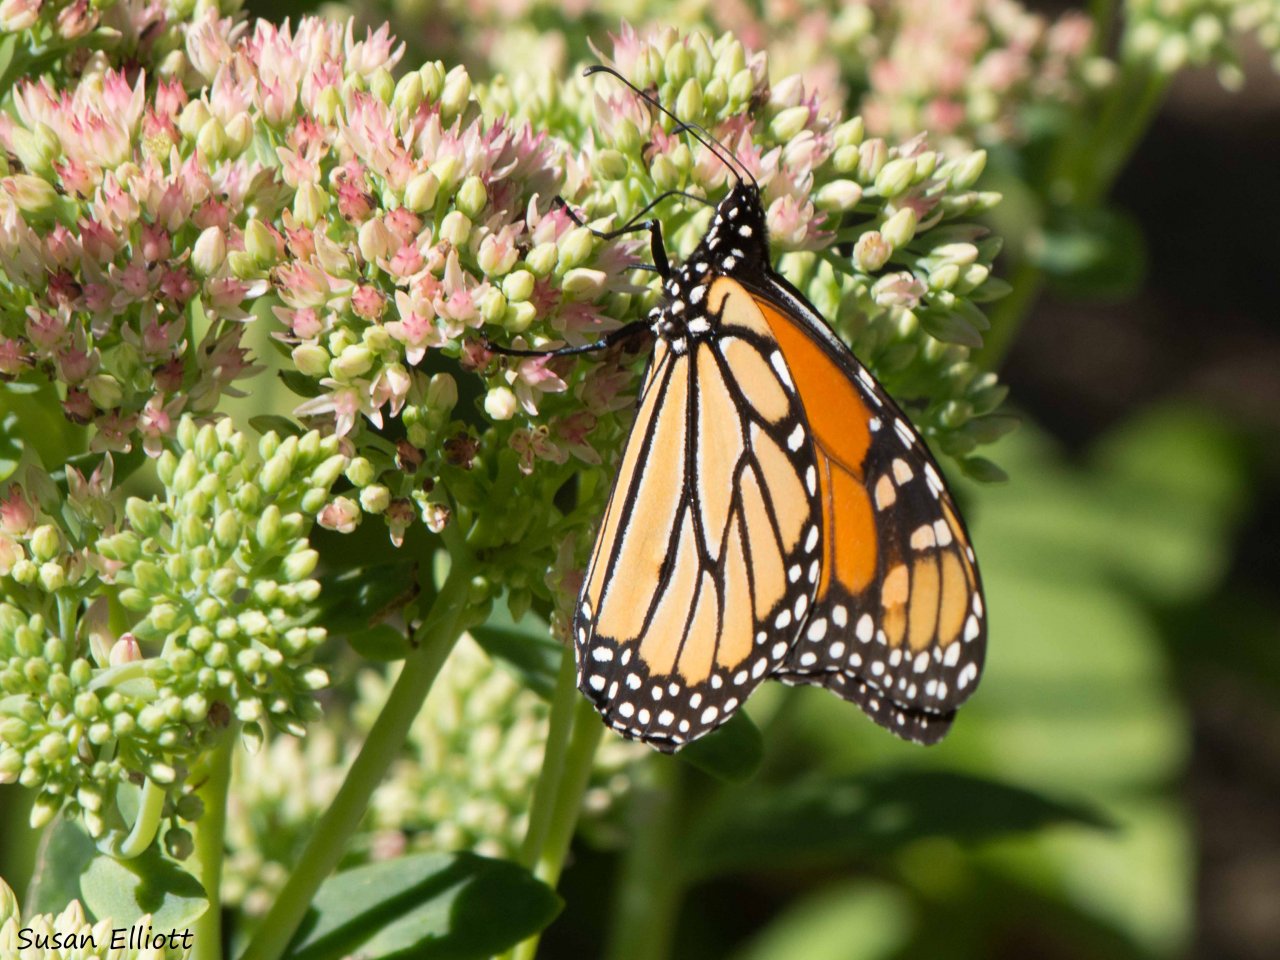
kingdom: Animalia
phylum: Arthropoda
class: Insecta
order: Lepidoptera
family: Nymphalidae
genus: Danaus
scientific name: Danaus plexippus
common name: Monarch
